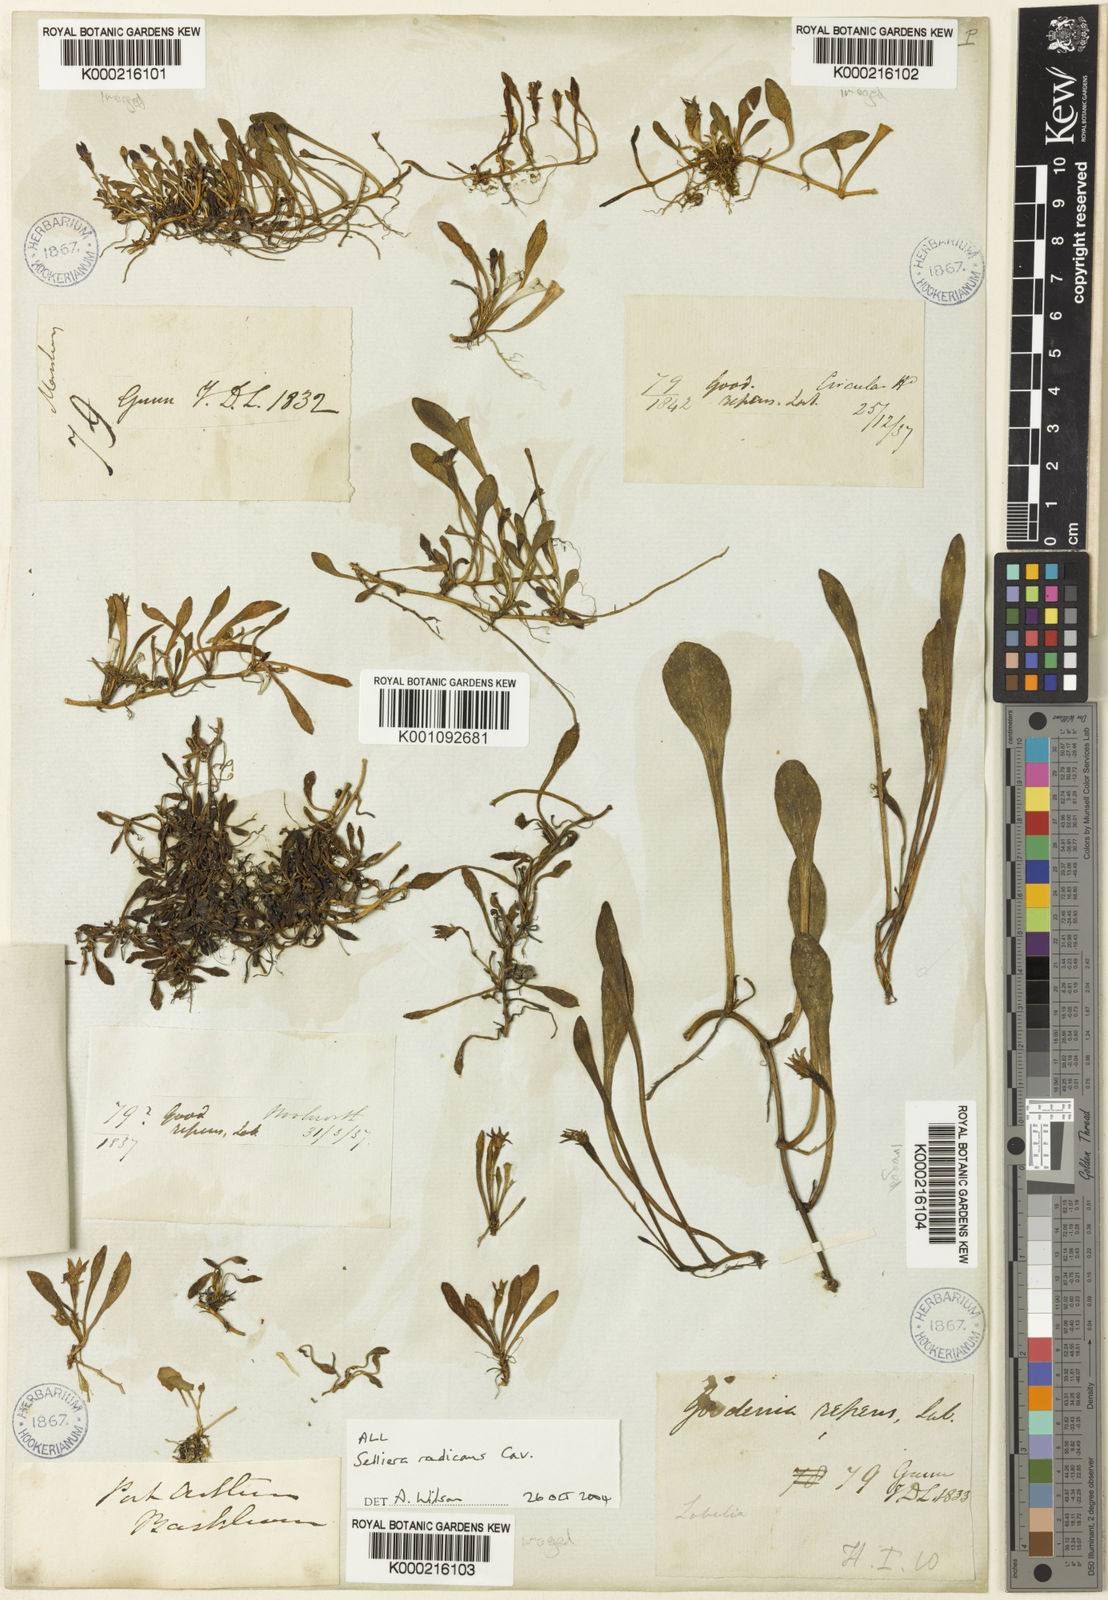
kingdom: Plantae
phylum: Tracheophyta
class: Magnoliopsida
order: Asterales
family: Goodeniaceae
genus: Goodenia
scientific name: Goodenia radicans
